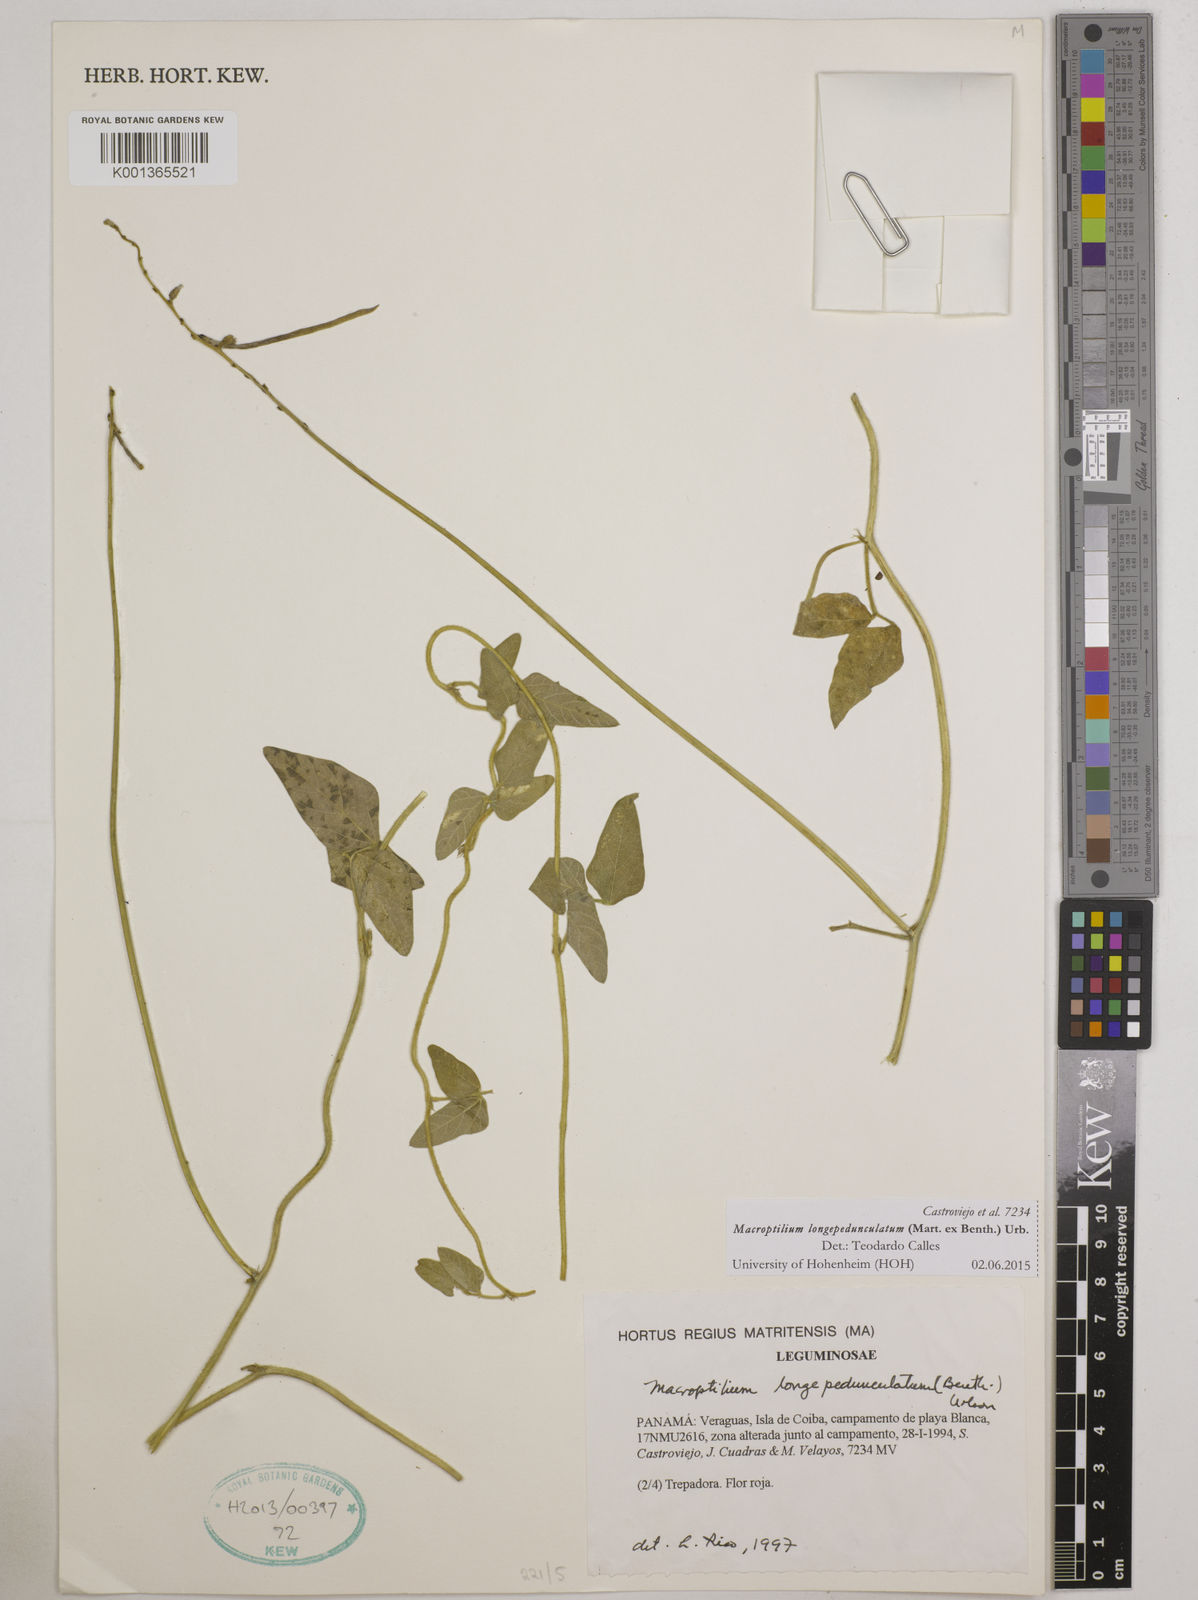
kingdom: Plantae
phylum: Tracheophyta
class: Magnoliopsida
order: Fabales
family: Fabaceae
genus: Macroptilium
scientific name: Macroptilium longepedunculatum
